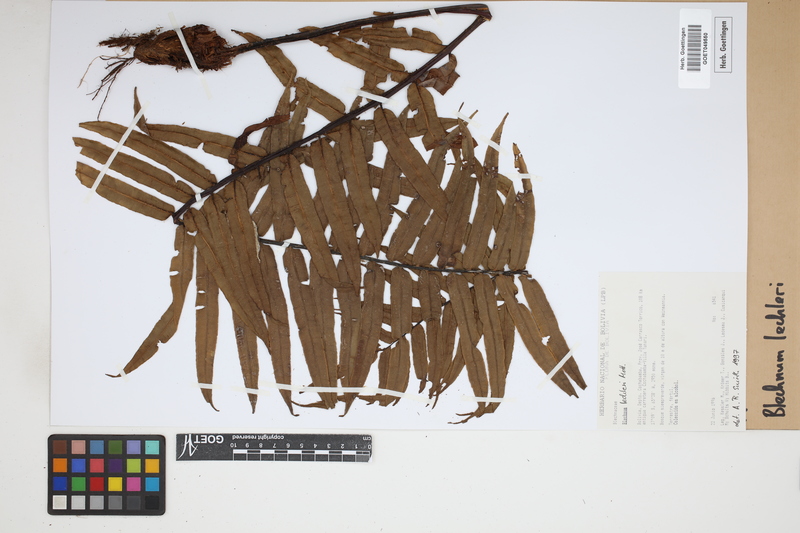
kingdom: Plantae
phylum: Tracheophyta
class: Polypodiopsida
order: Polypodiales
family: Blechnaceae
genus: Parablechnum
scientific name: Parablechnum lechleri
